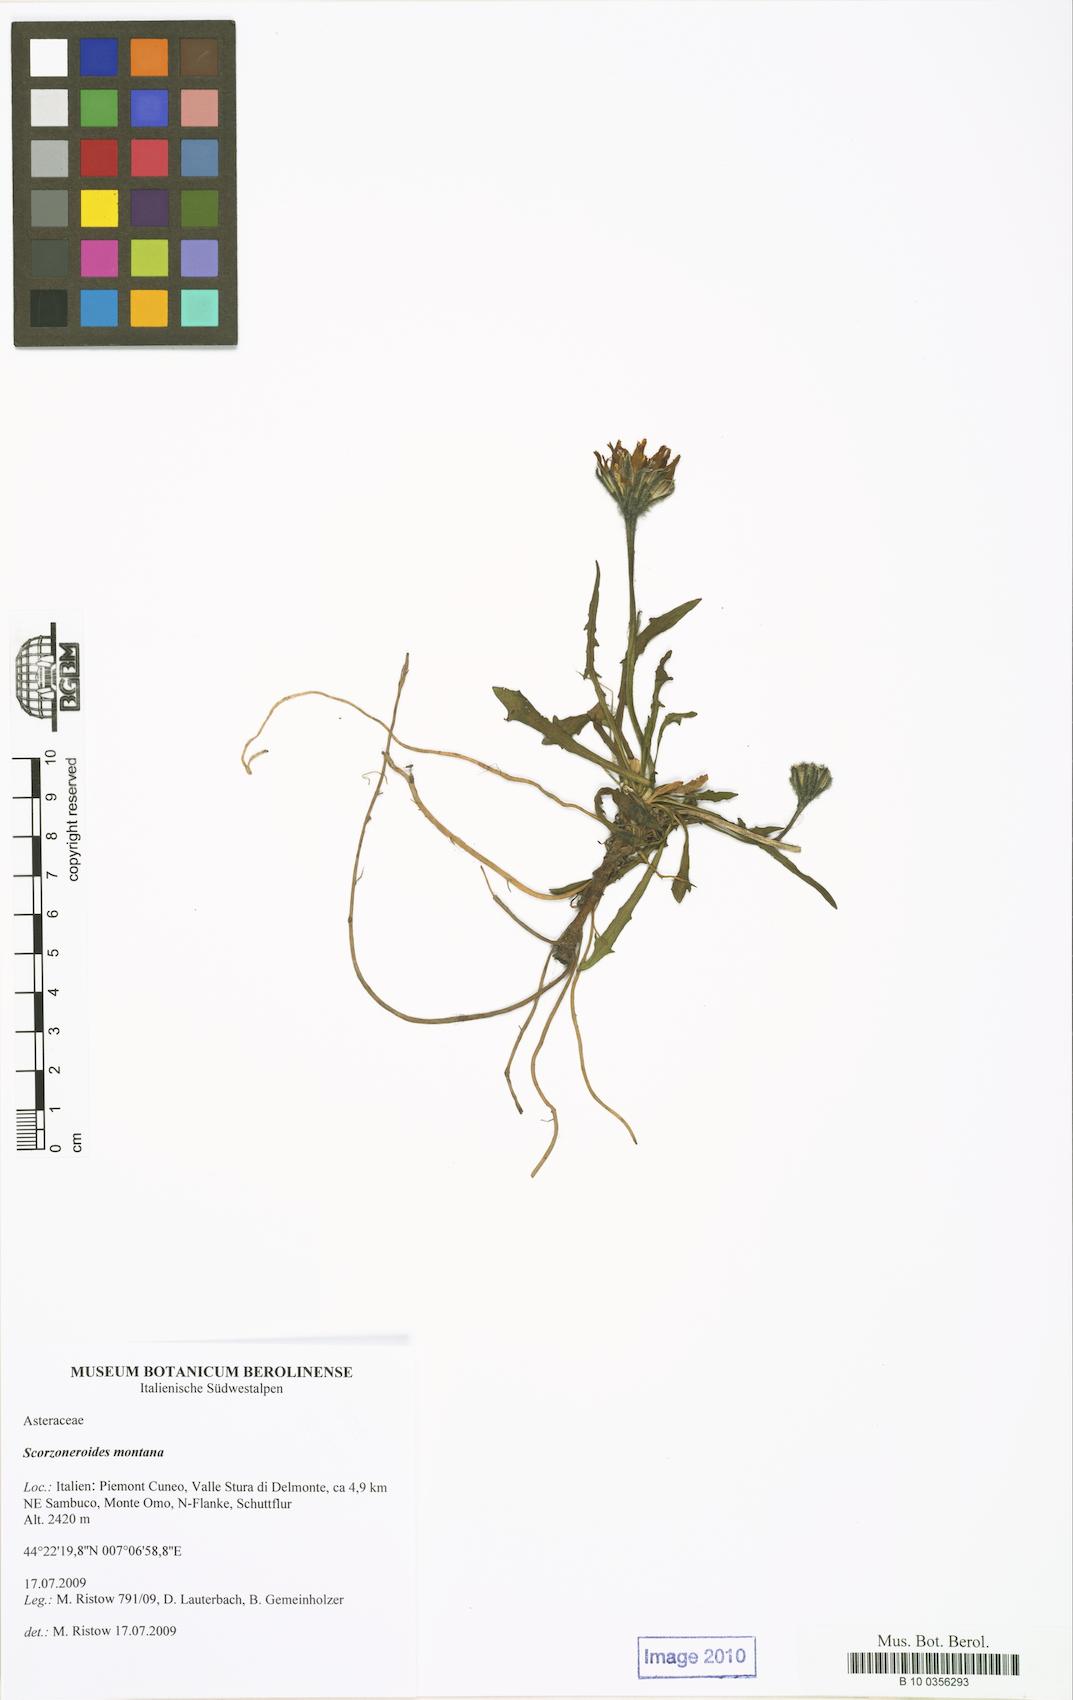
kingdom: Plantae
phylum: Tracheophyta
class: Magnoliopsida
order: Asterales
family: Asteraceae
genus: Scorzoneroides
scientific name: Scorzoneroides montana
